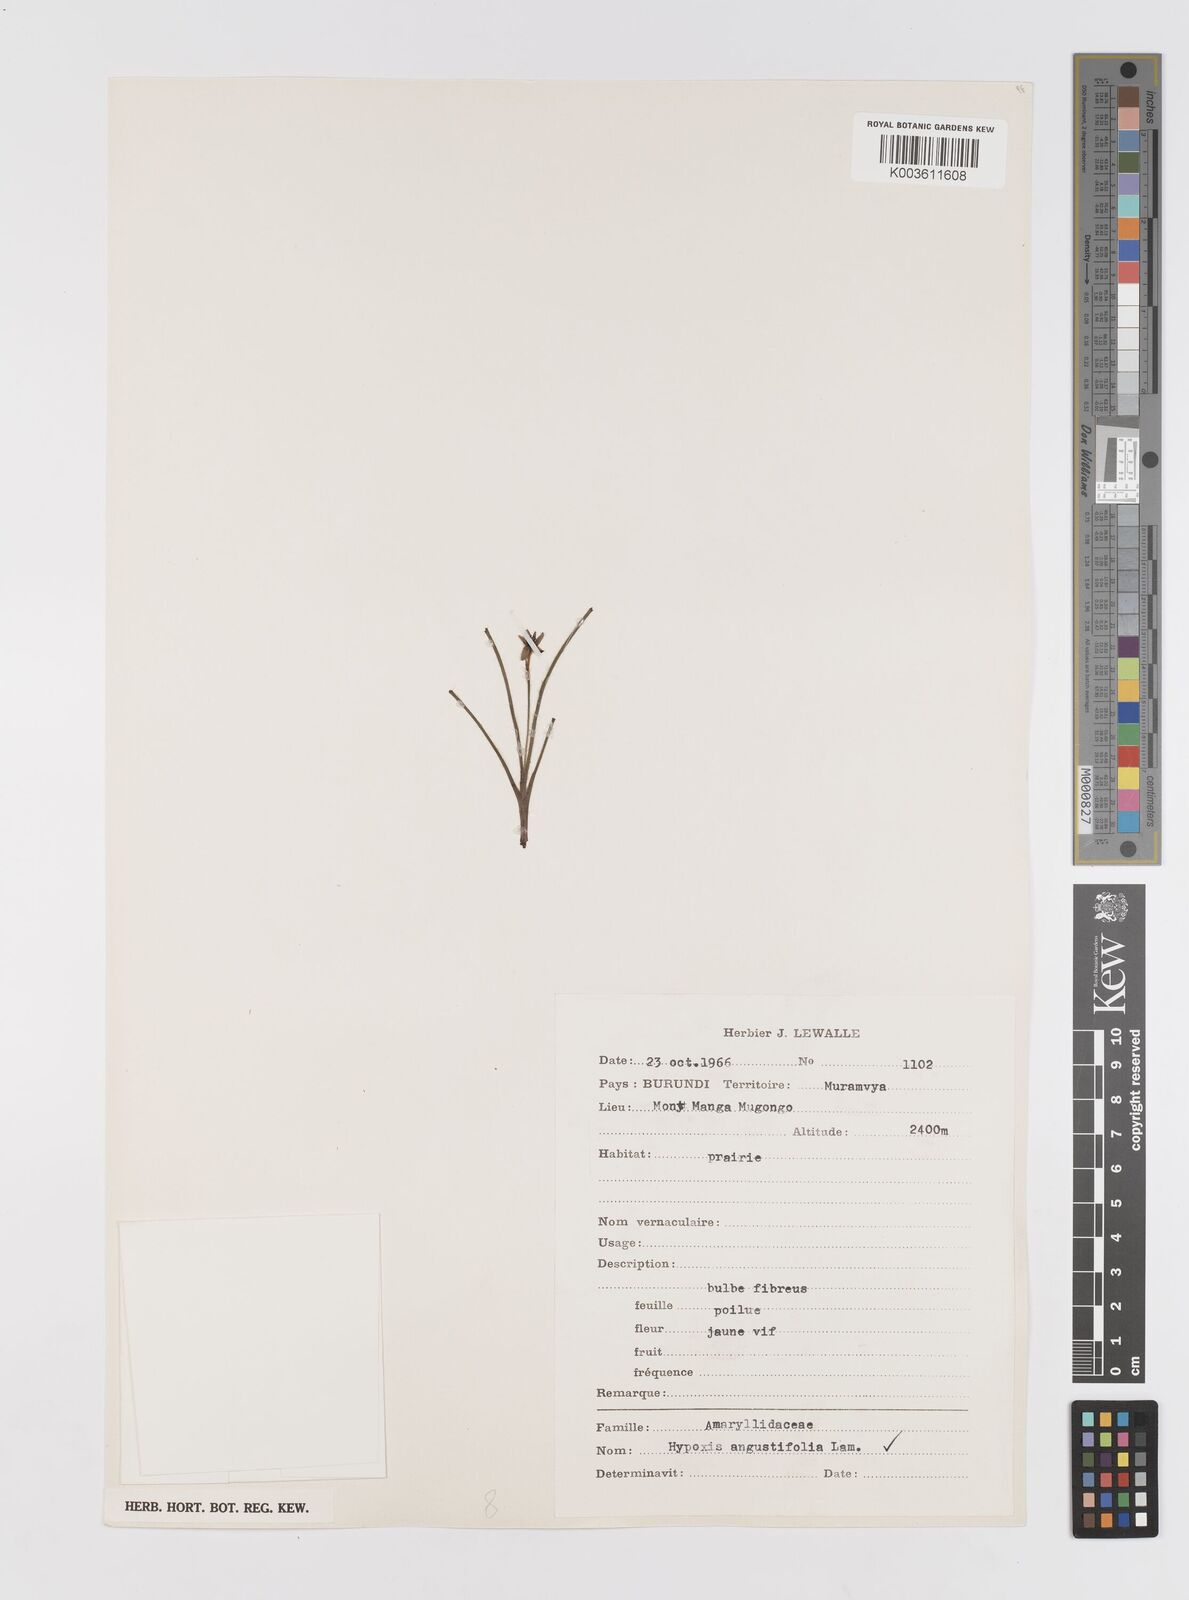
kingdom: Plantae
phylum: Tracheophyta
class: Liliopsida
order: Asparagales
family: Hypoxidaceae
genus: Hypoxis
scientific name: Hypoxis angustifolia
